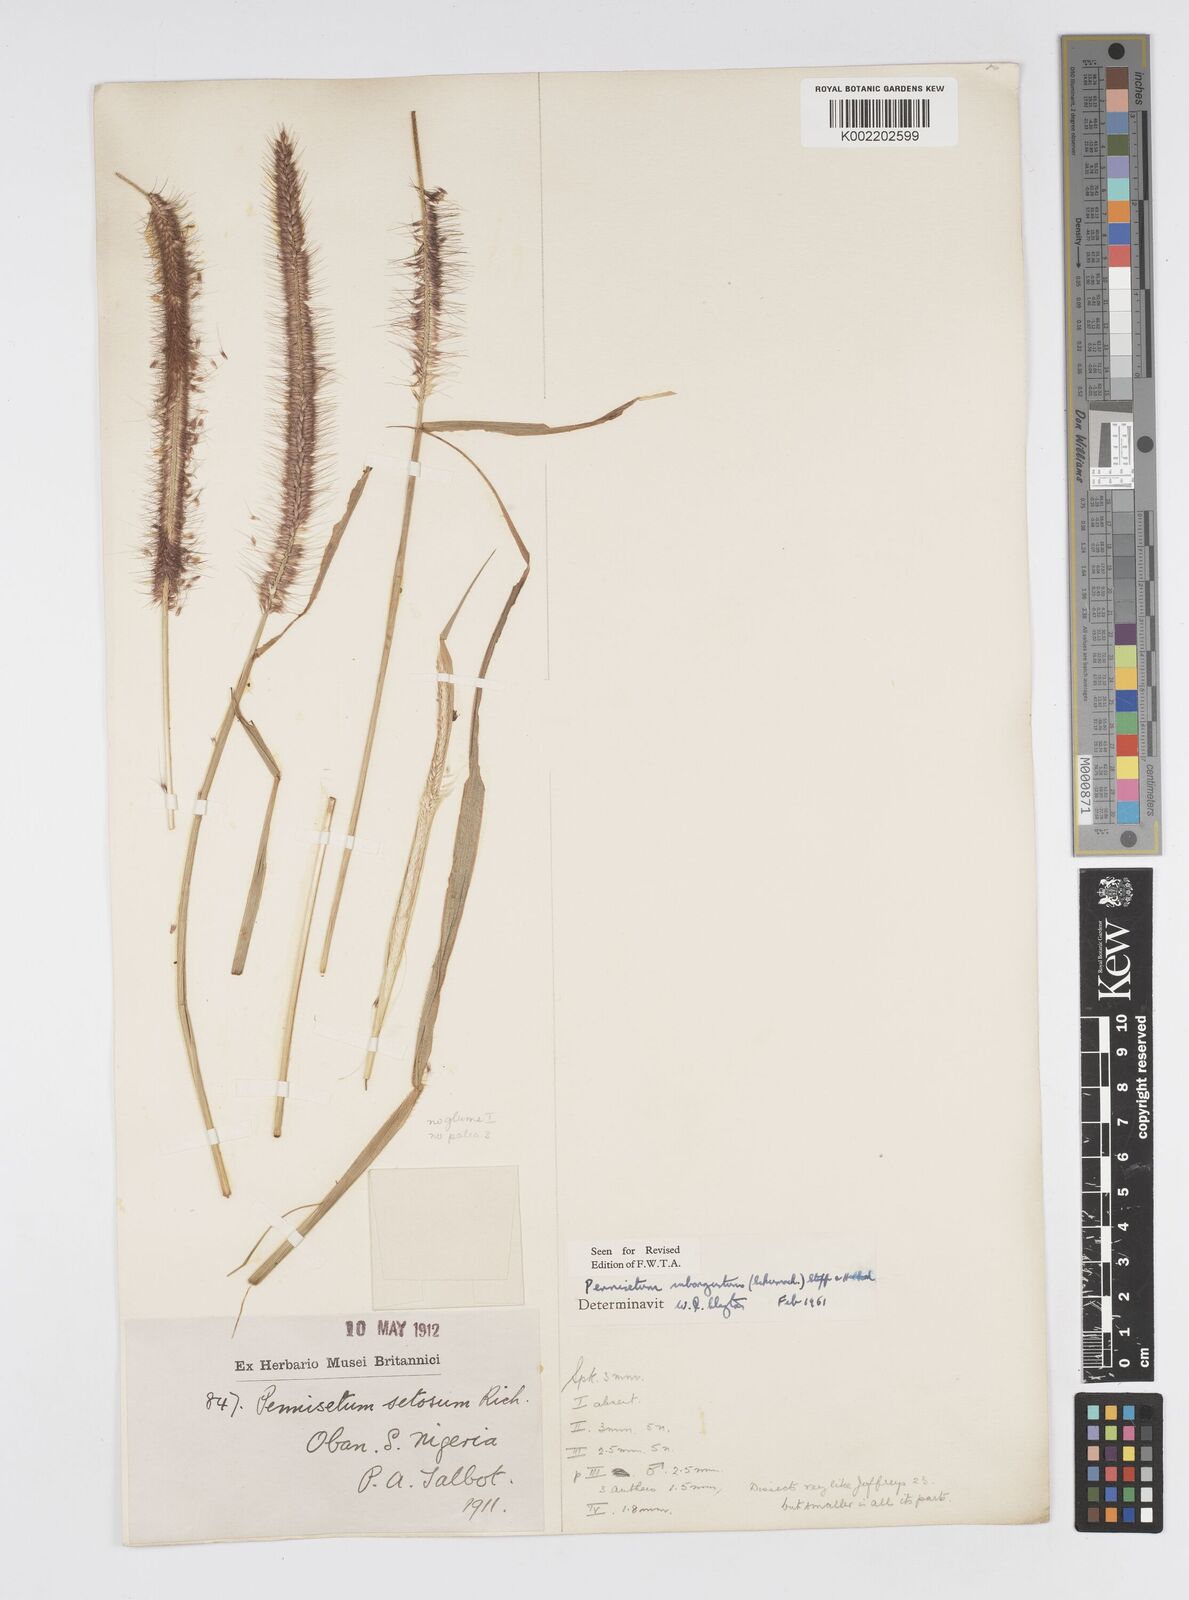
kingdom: Plantae
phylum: Tracheophyta
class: Liliopsida
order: Poales
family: Poaceae
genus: Setaria
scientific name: Setaria parviflora
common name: Knotroot bristle-grass
